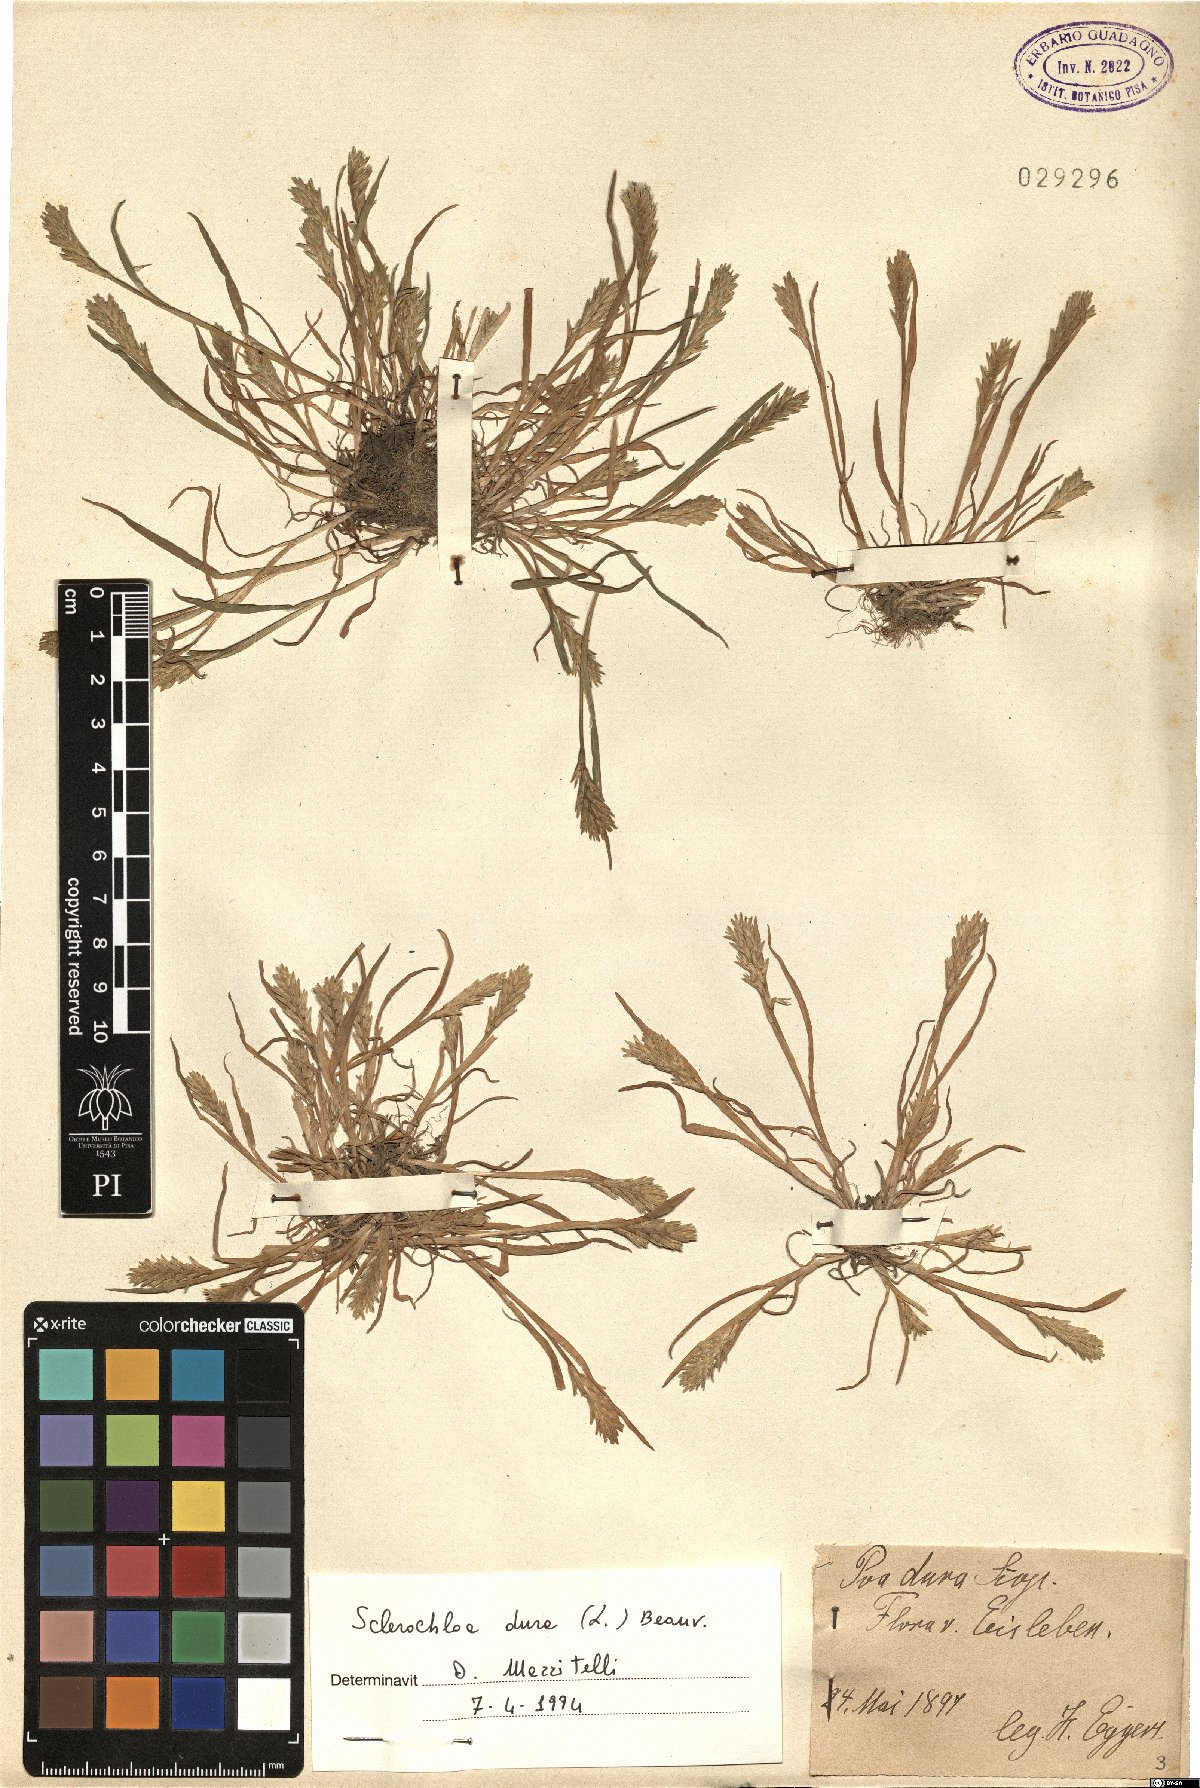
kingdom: Plantae
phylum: Tracheophyta
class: Liliopsida
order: Poales
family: Poaceae
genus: Sclerochloa
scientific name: Sclerochloa dura
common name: Common hardgrass
